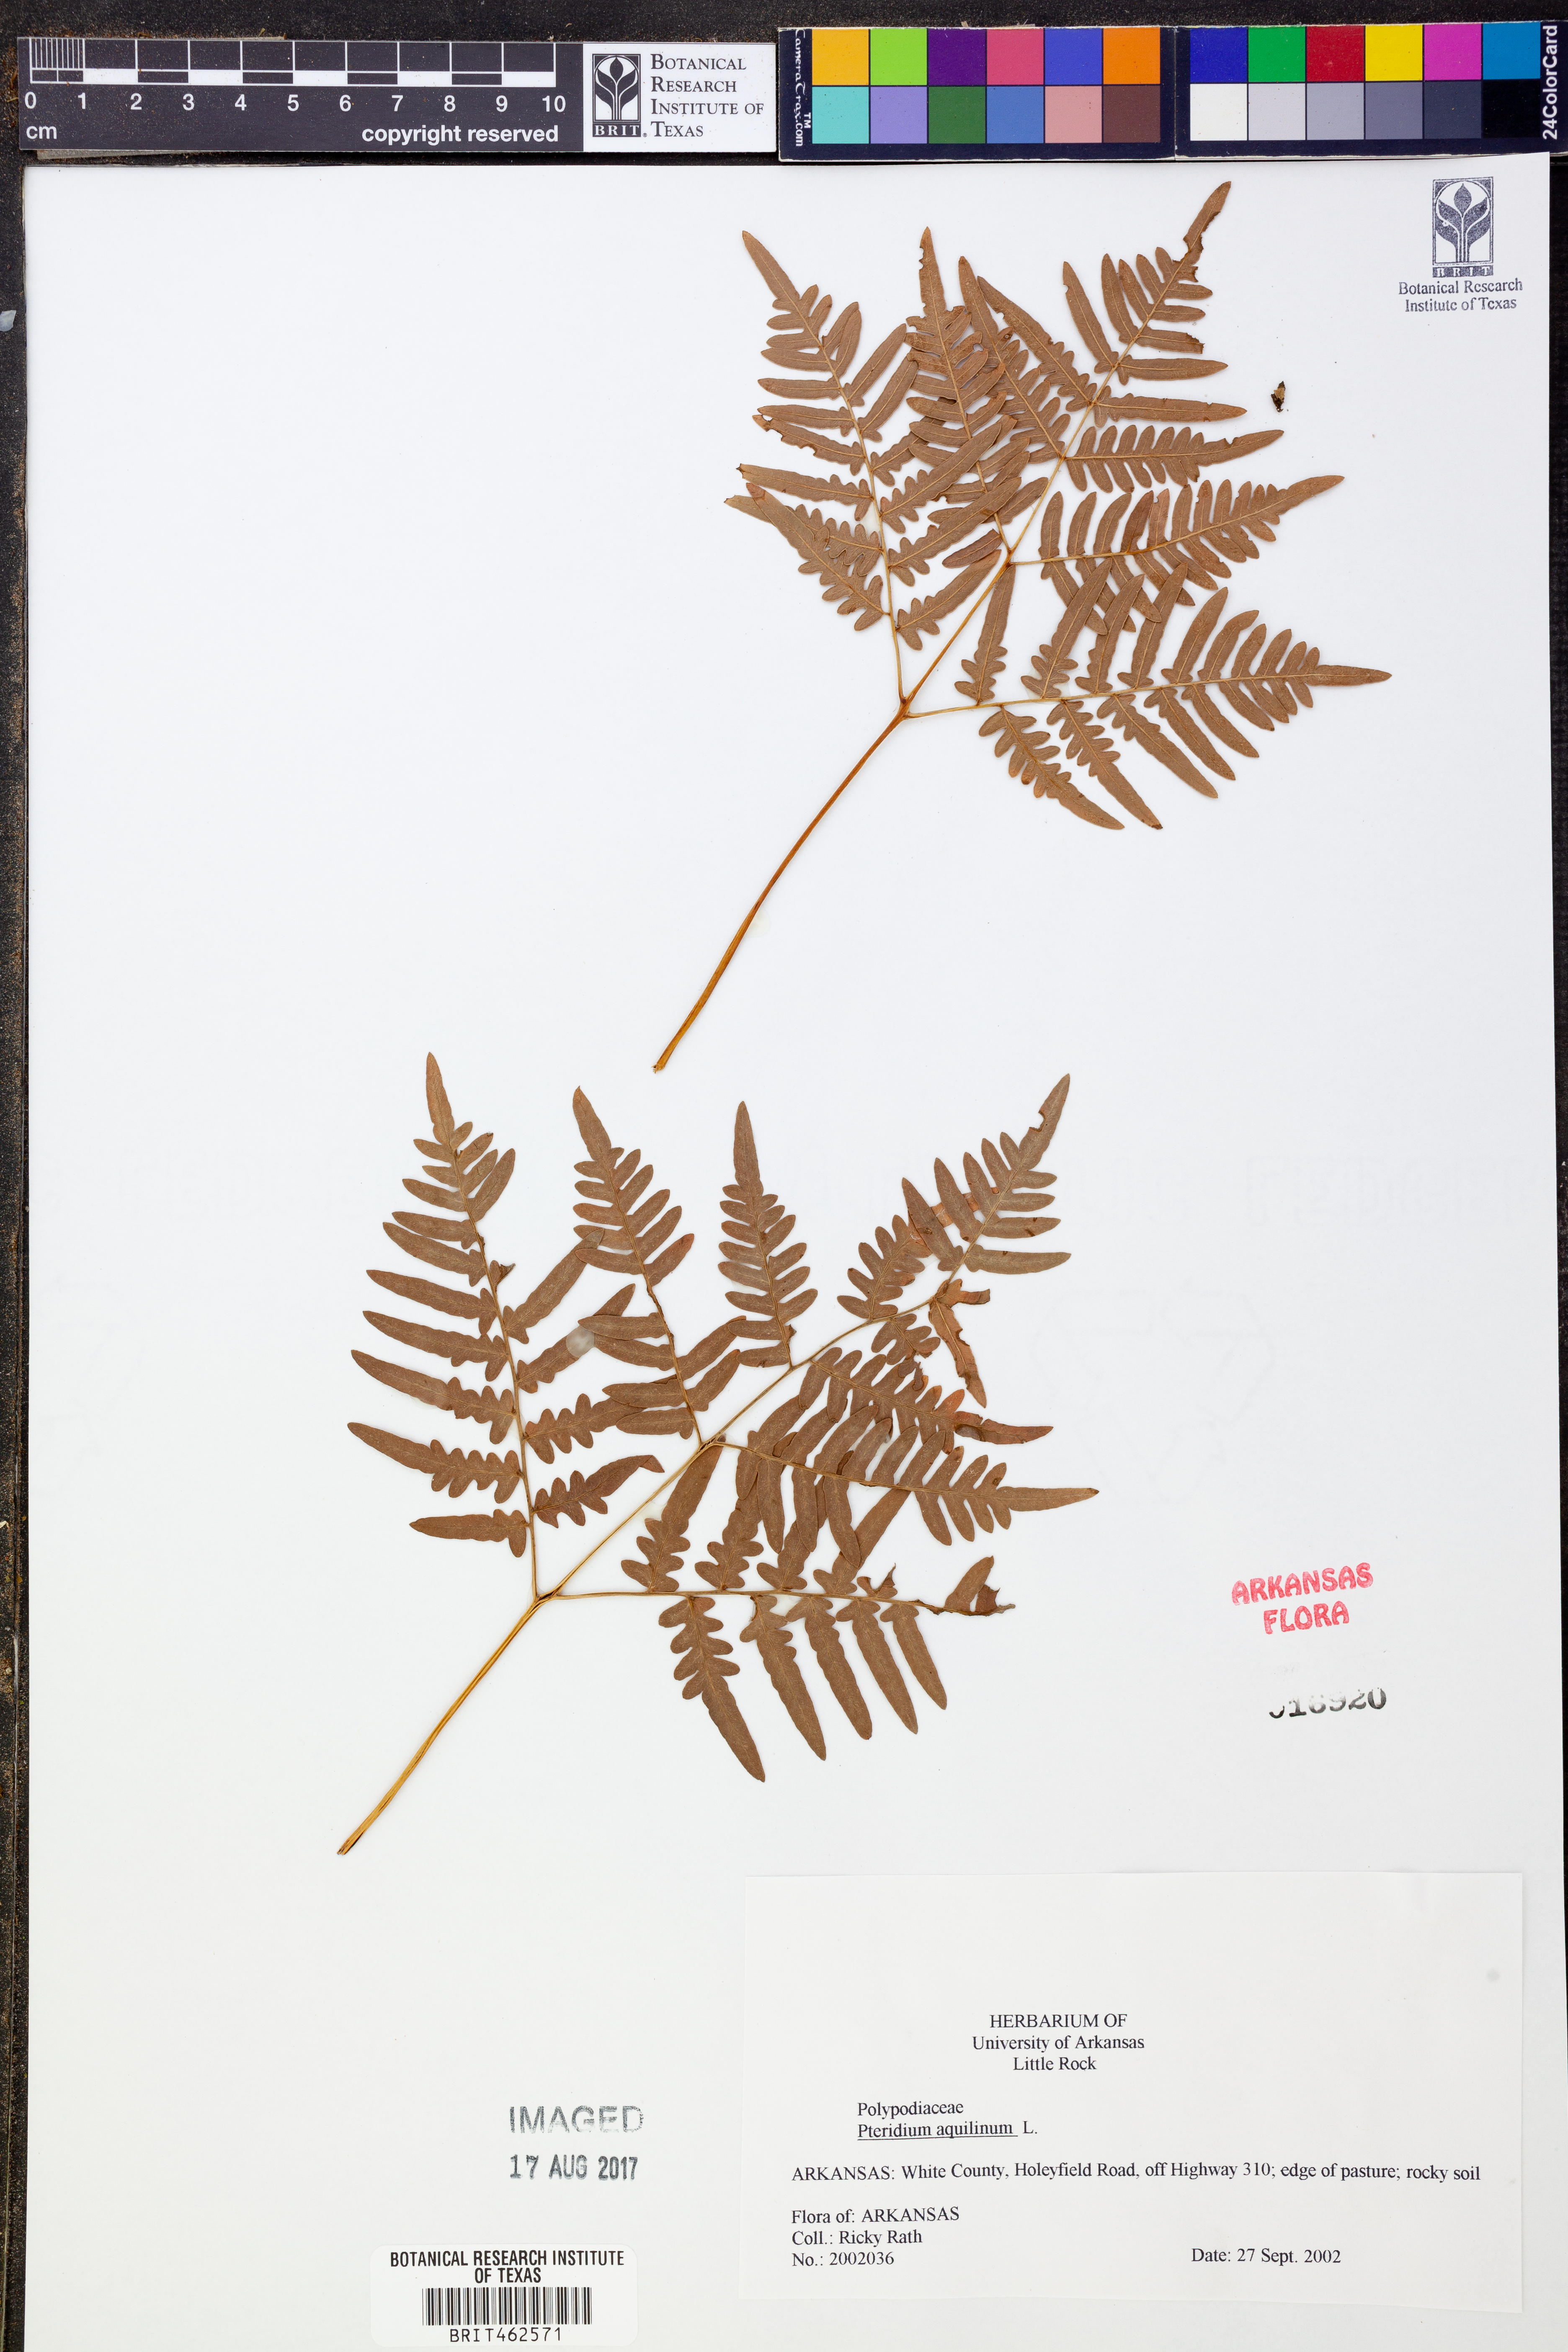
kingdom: Plantae
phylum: Tracheophyta
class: Polypodiopsida
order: Polypodiales
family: Dennstaedtiaceae
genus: Pteridium
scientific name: Pteridium aquilinum
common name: Bracken
